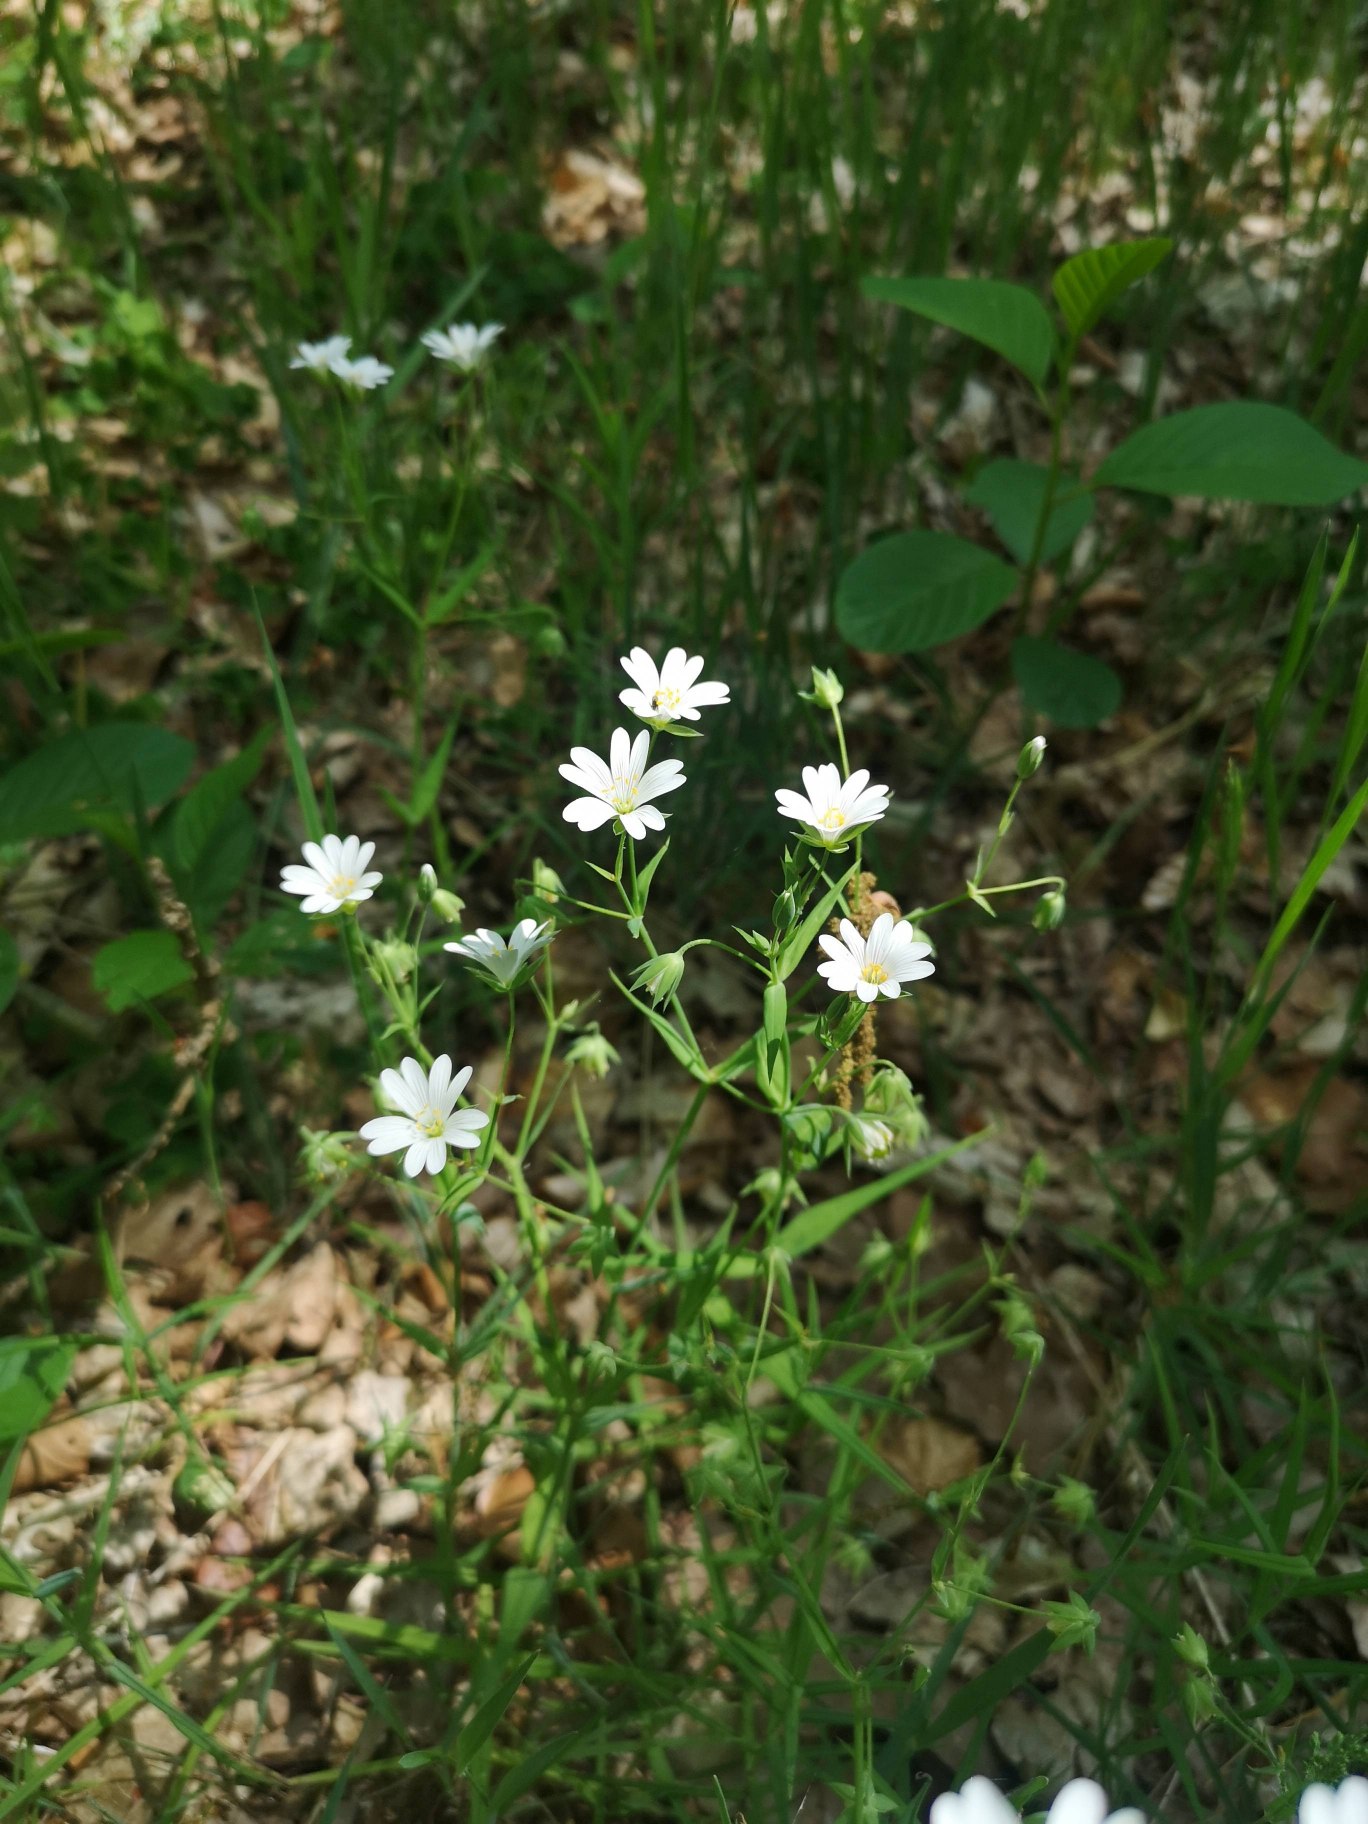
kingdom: Plantae
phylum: Tracheophyta
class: Magnoliopsida
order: Caryophyllales
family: Caryophyllaceae
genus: Rabelera
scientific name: Rabelera holostea
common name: Stor fladstjerne
